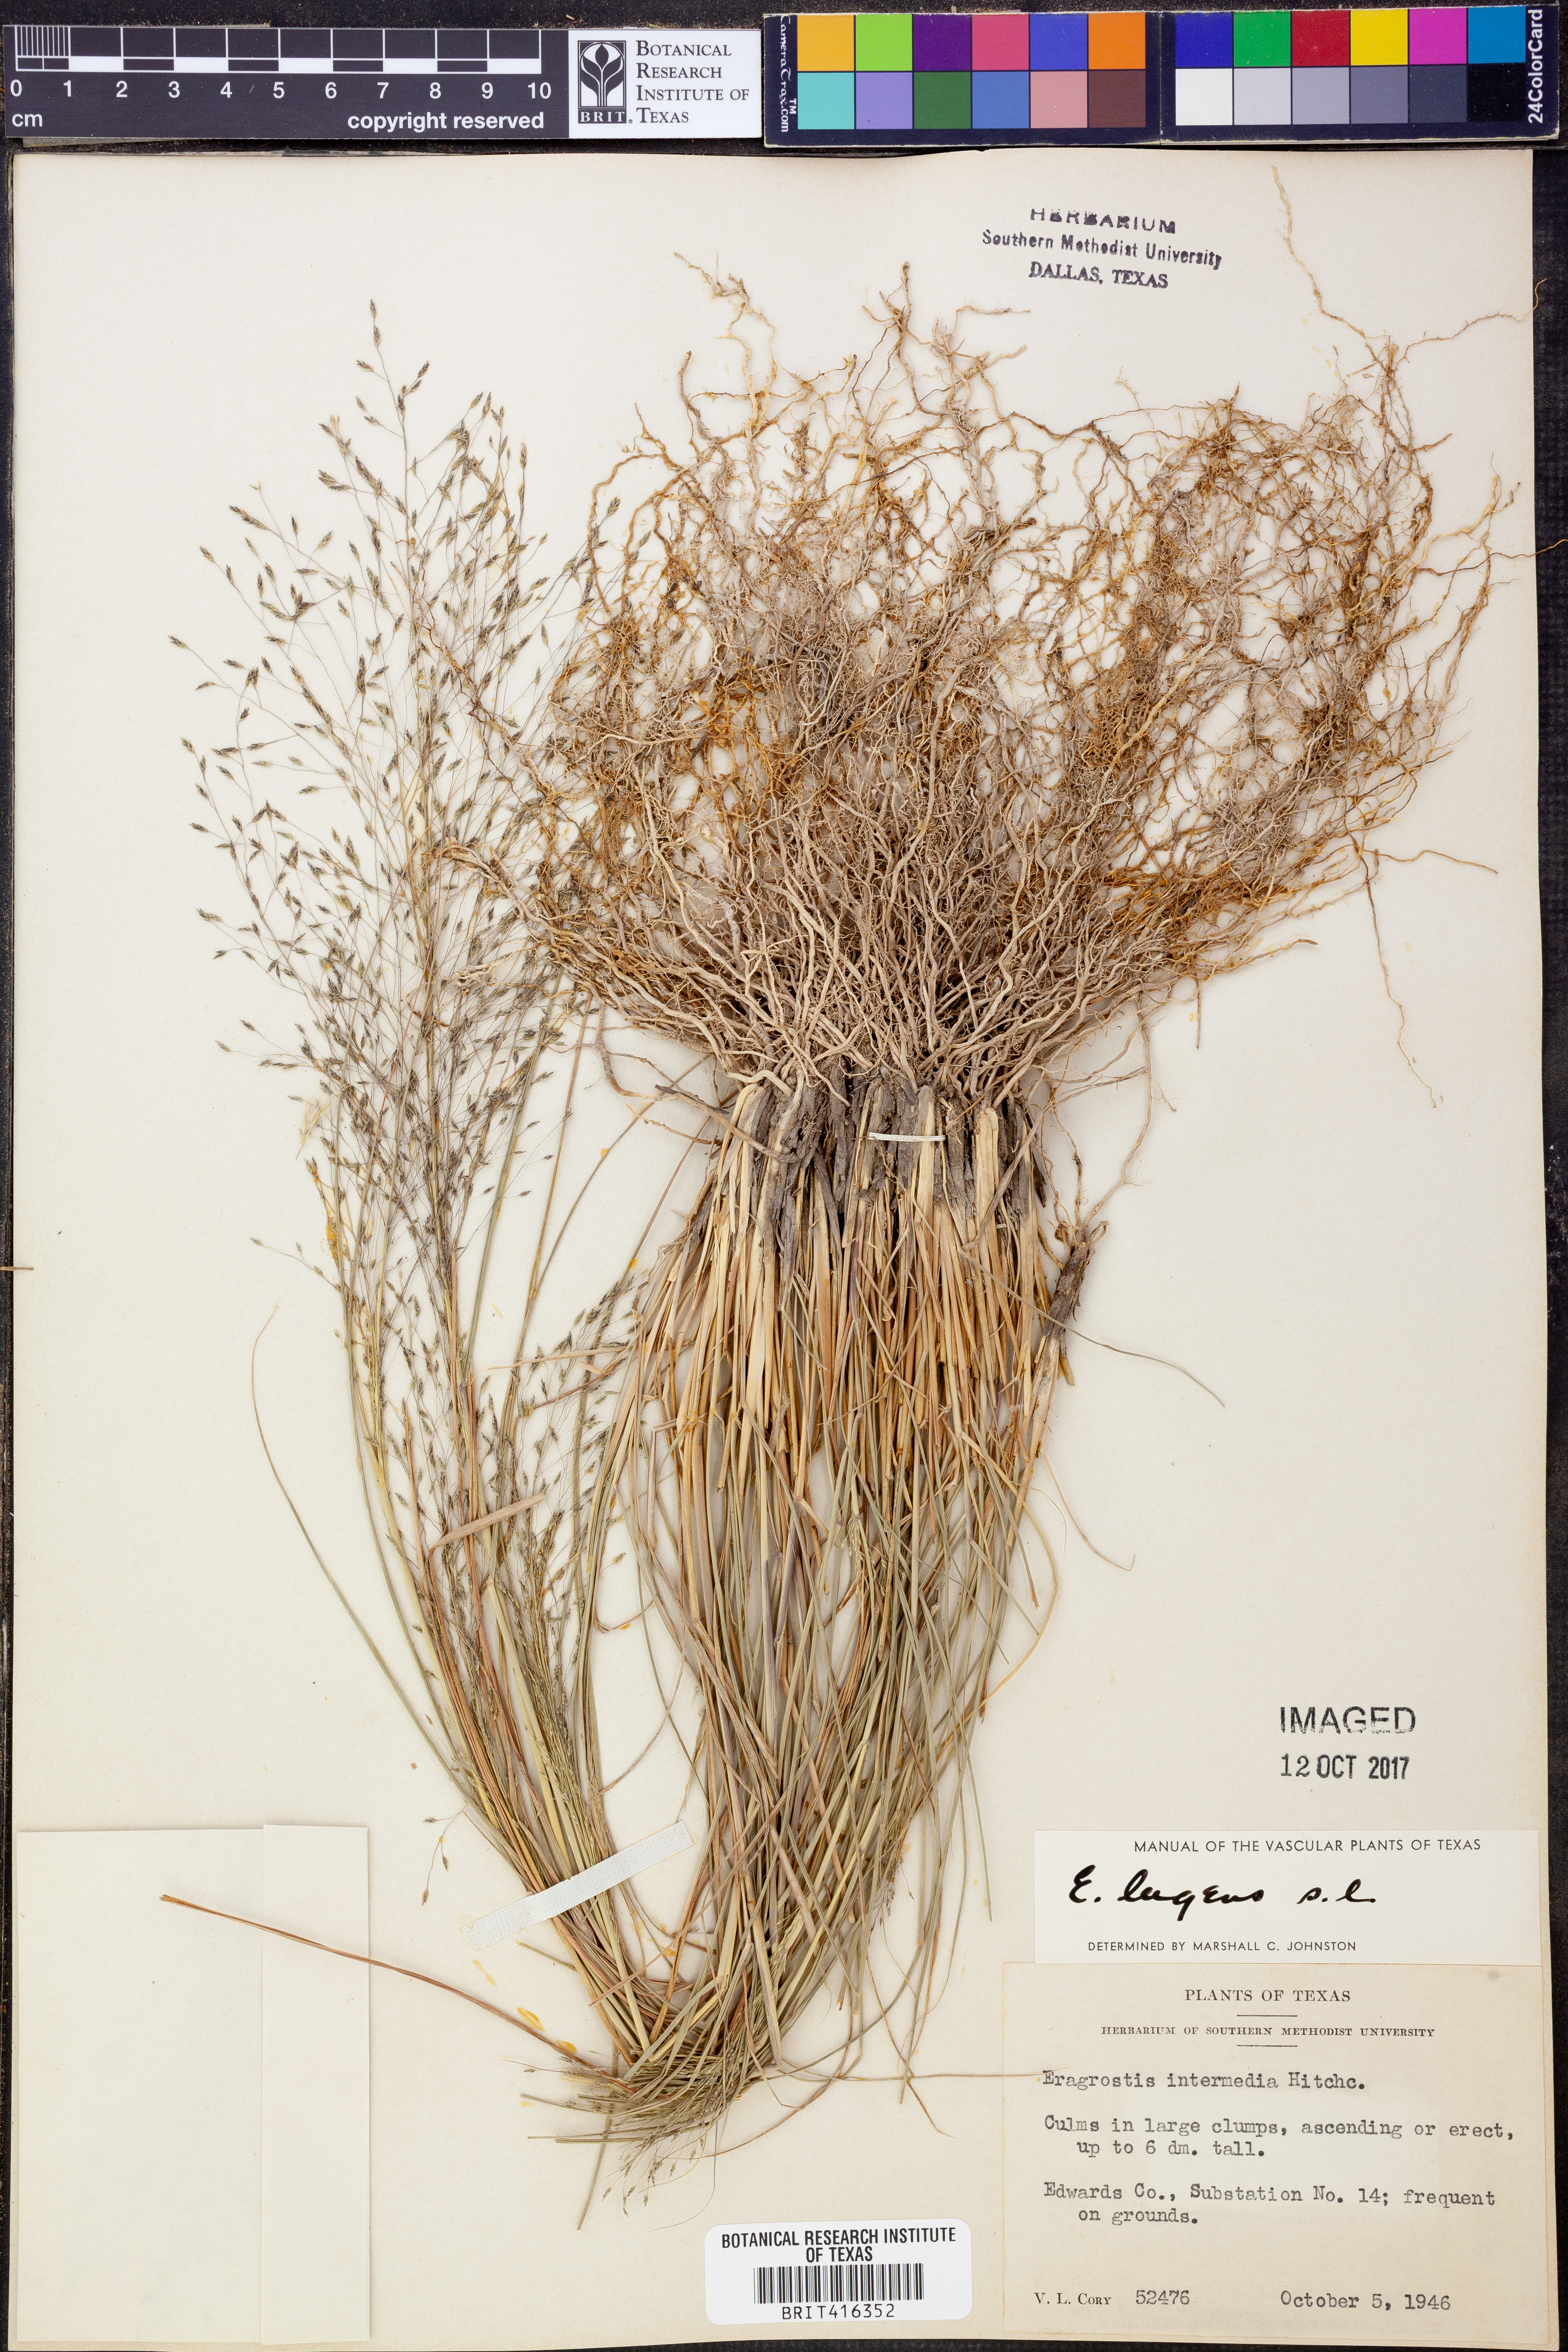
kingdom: Plantae
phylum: Tracheophyta
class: Liliopsida
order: Poales
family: Poaceae
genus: Eragrostis
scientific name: Eragrostis capillaris
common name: Hair-like lovegrass
